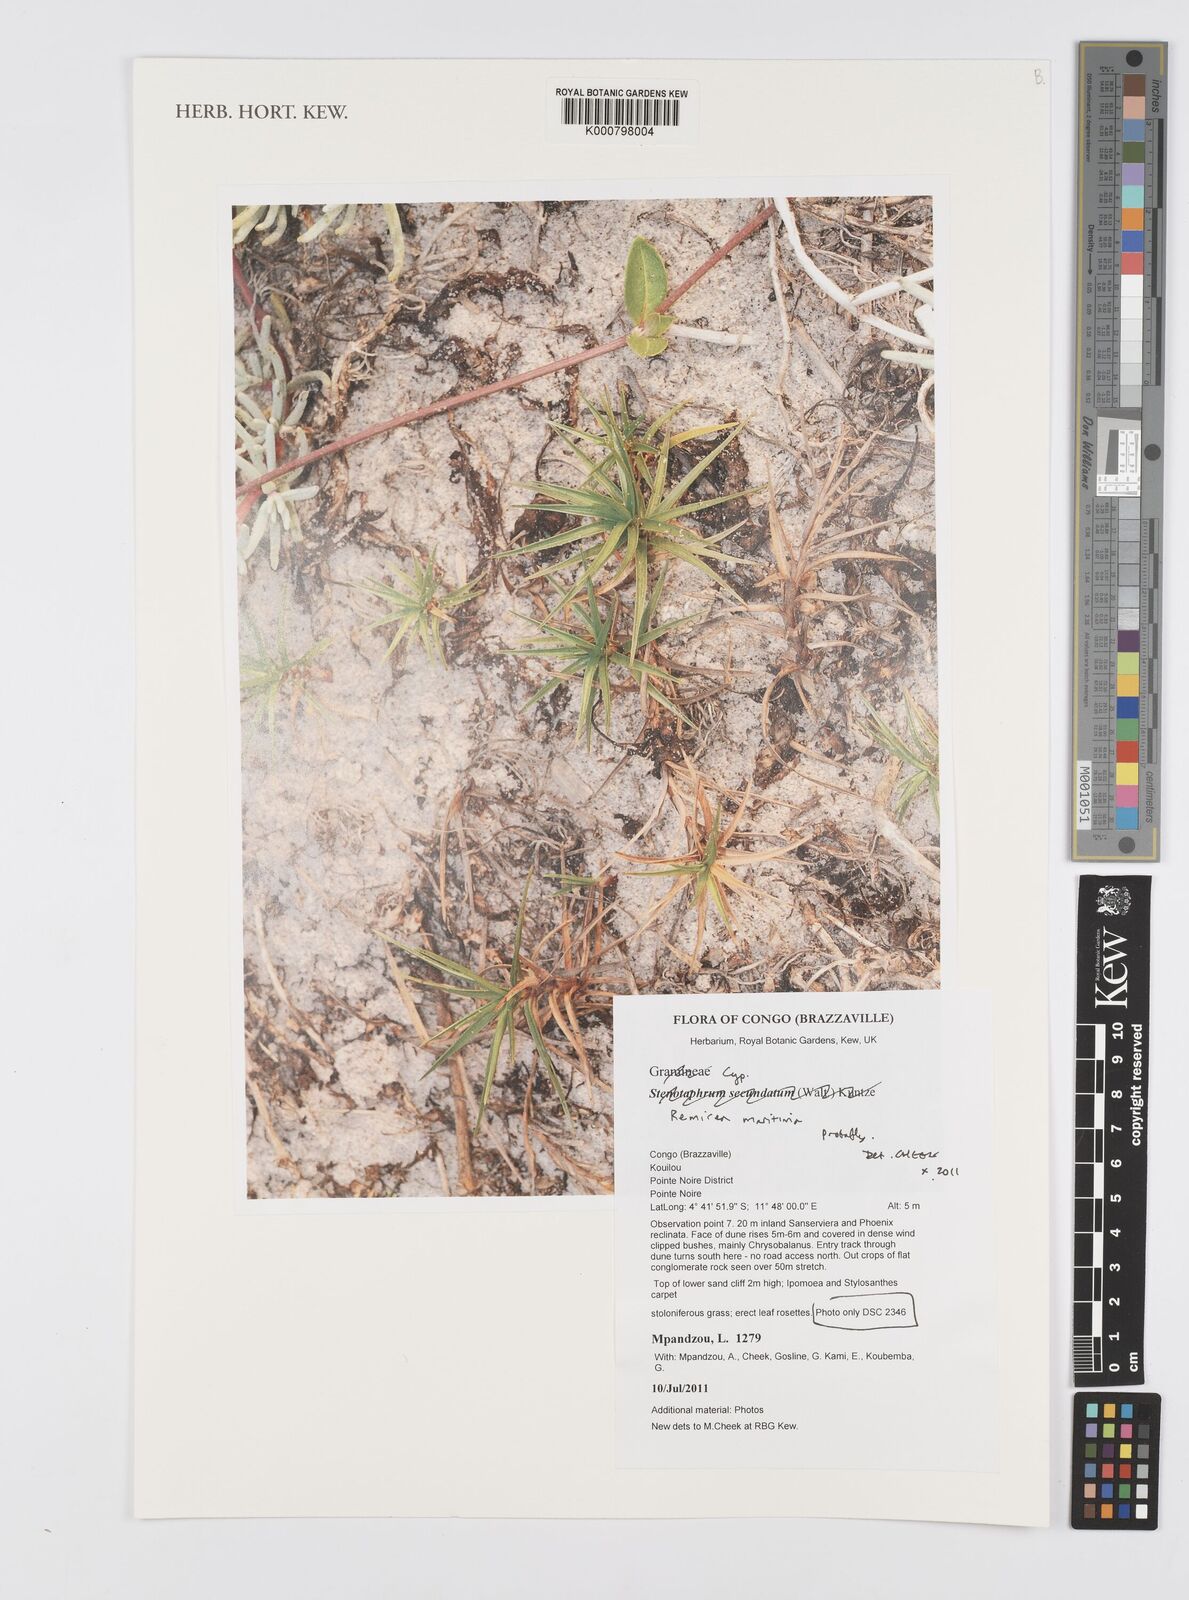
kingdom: Plantae
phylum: Tracheophyta
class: Liliopsida
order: Poales
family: Cyperaceae
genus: Cyperus
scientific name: Cyperus
